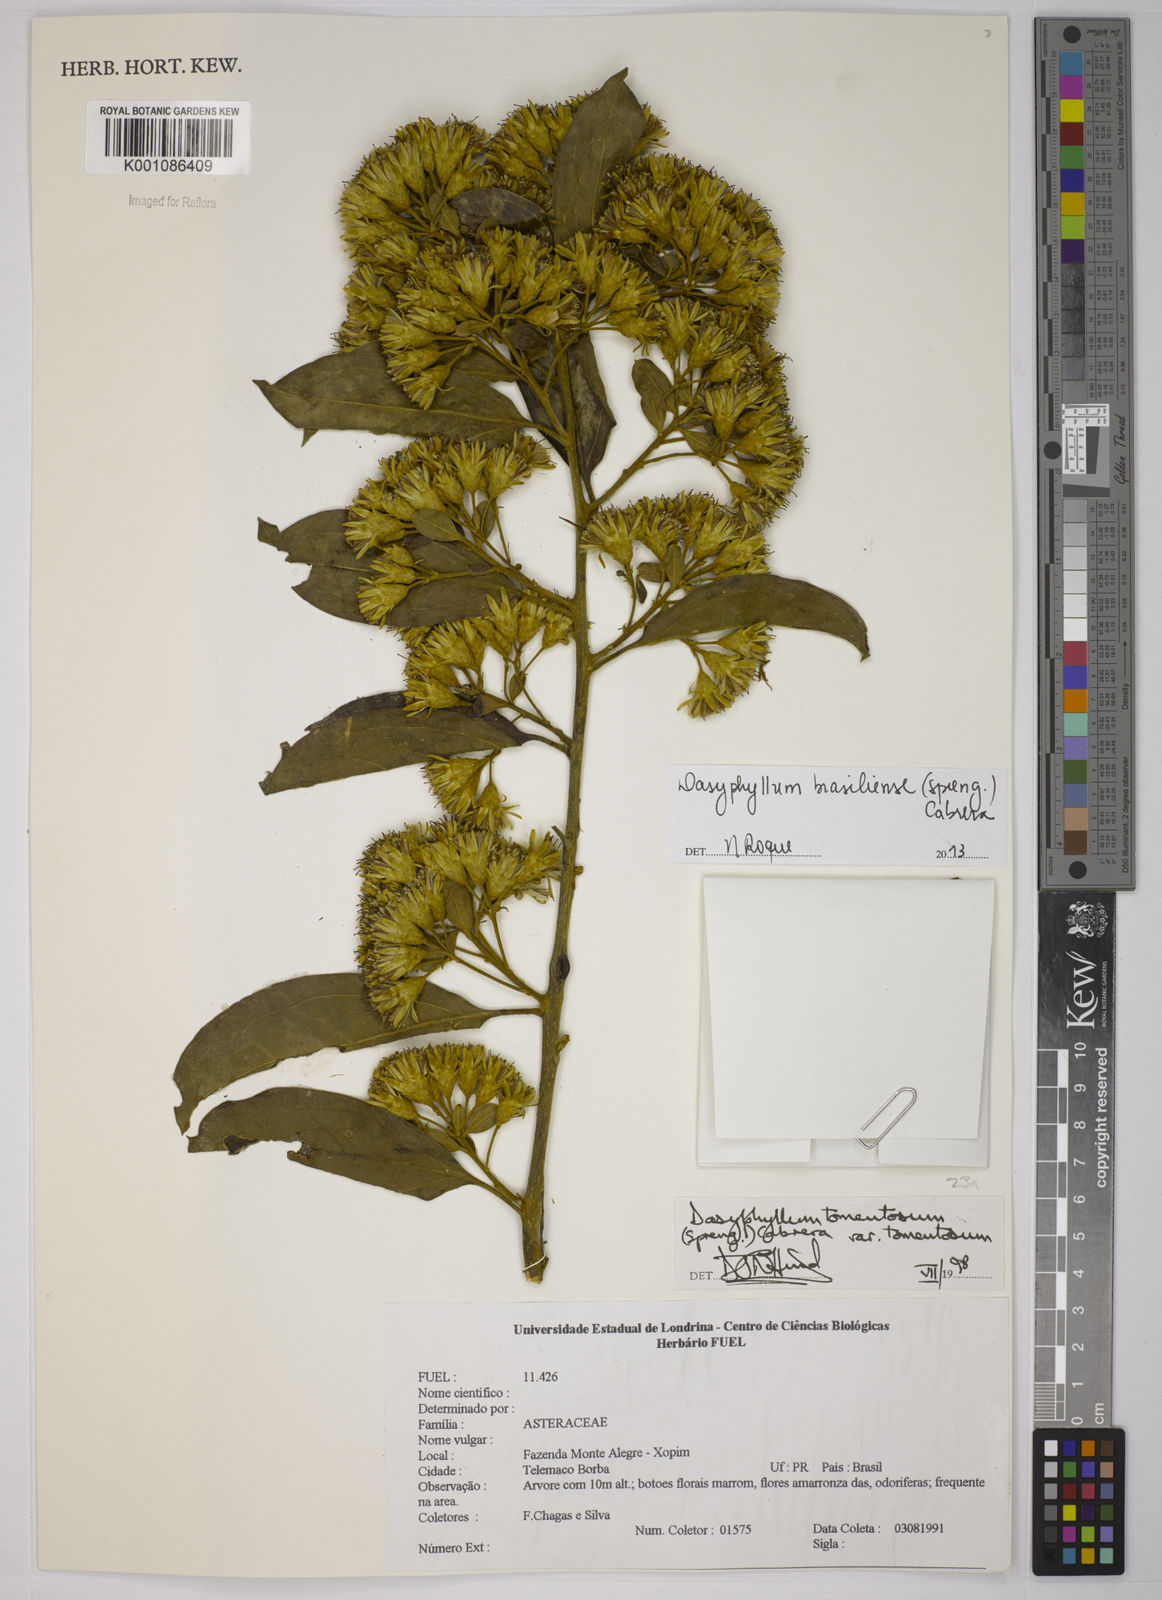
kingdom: Plantae
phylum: Tracheophyta
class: Magnoliopsida
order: Asterales
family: Asteraceae
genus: Dasyphyllum
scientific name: Dasyphyllum brasiliense
